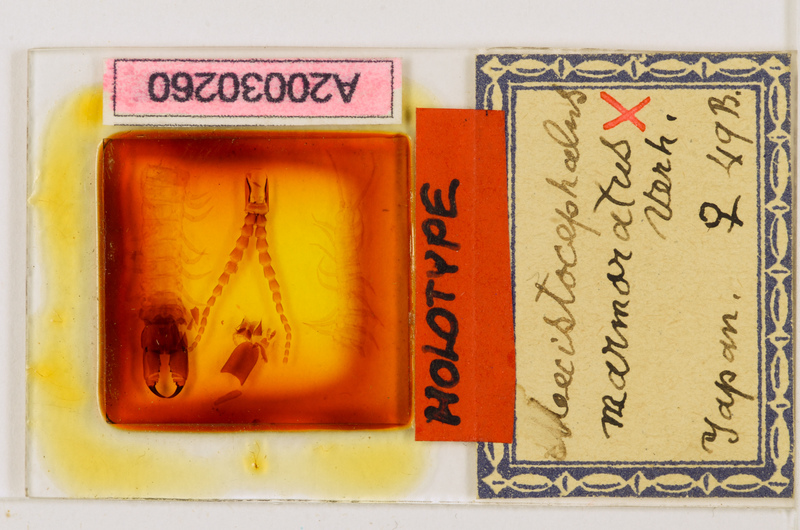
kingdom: Animalia
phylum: Arthropoda
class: Chilopoda
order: Geophilomorpha
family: Mecistocephalidae
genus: Mecistocephalus
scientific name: Mecistocephalus marmoratus
